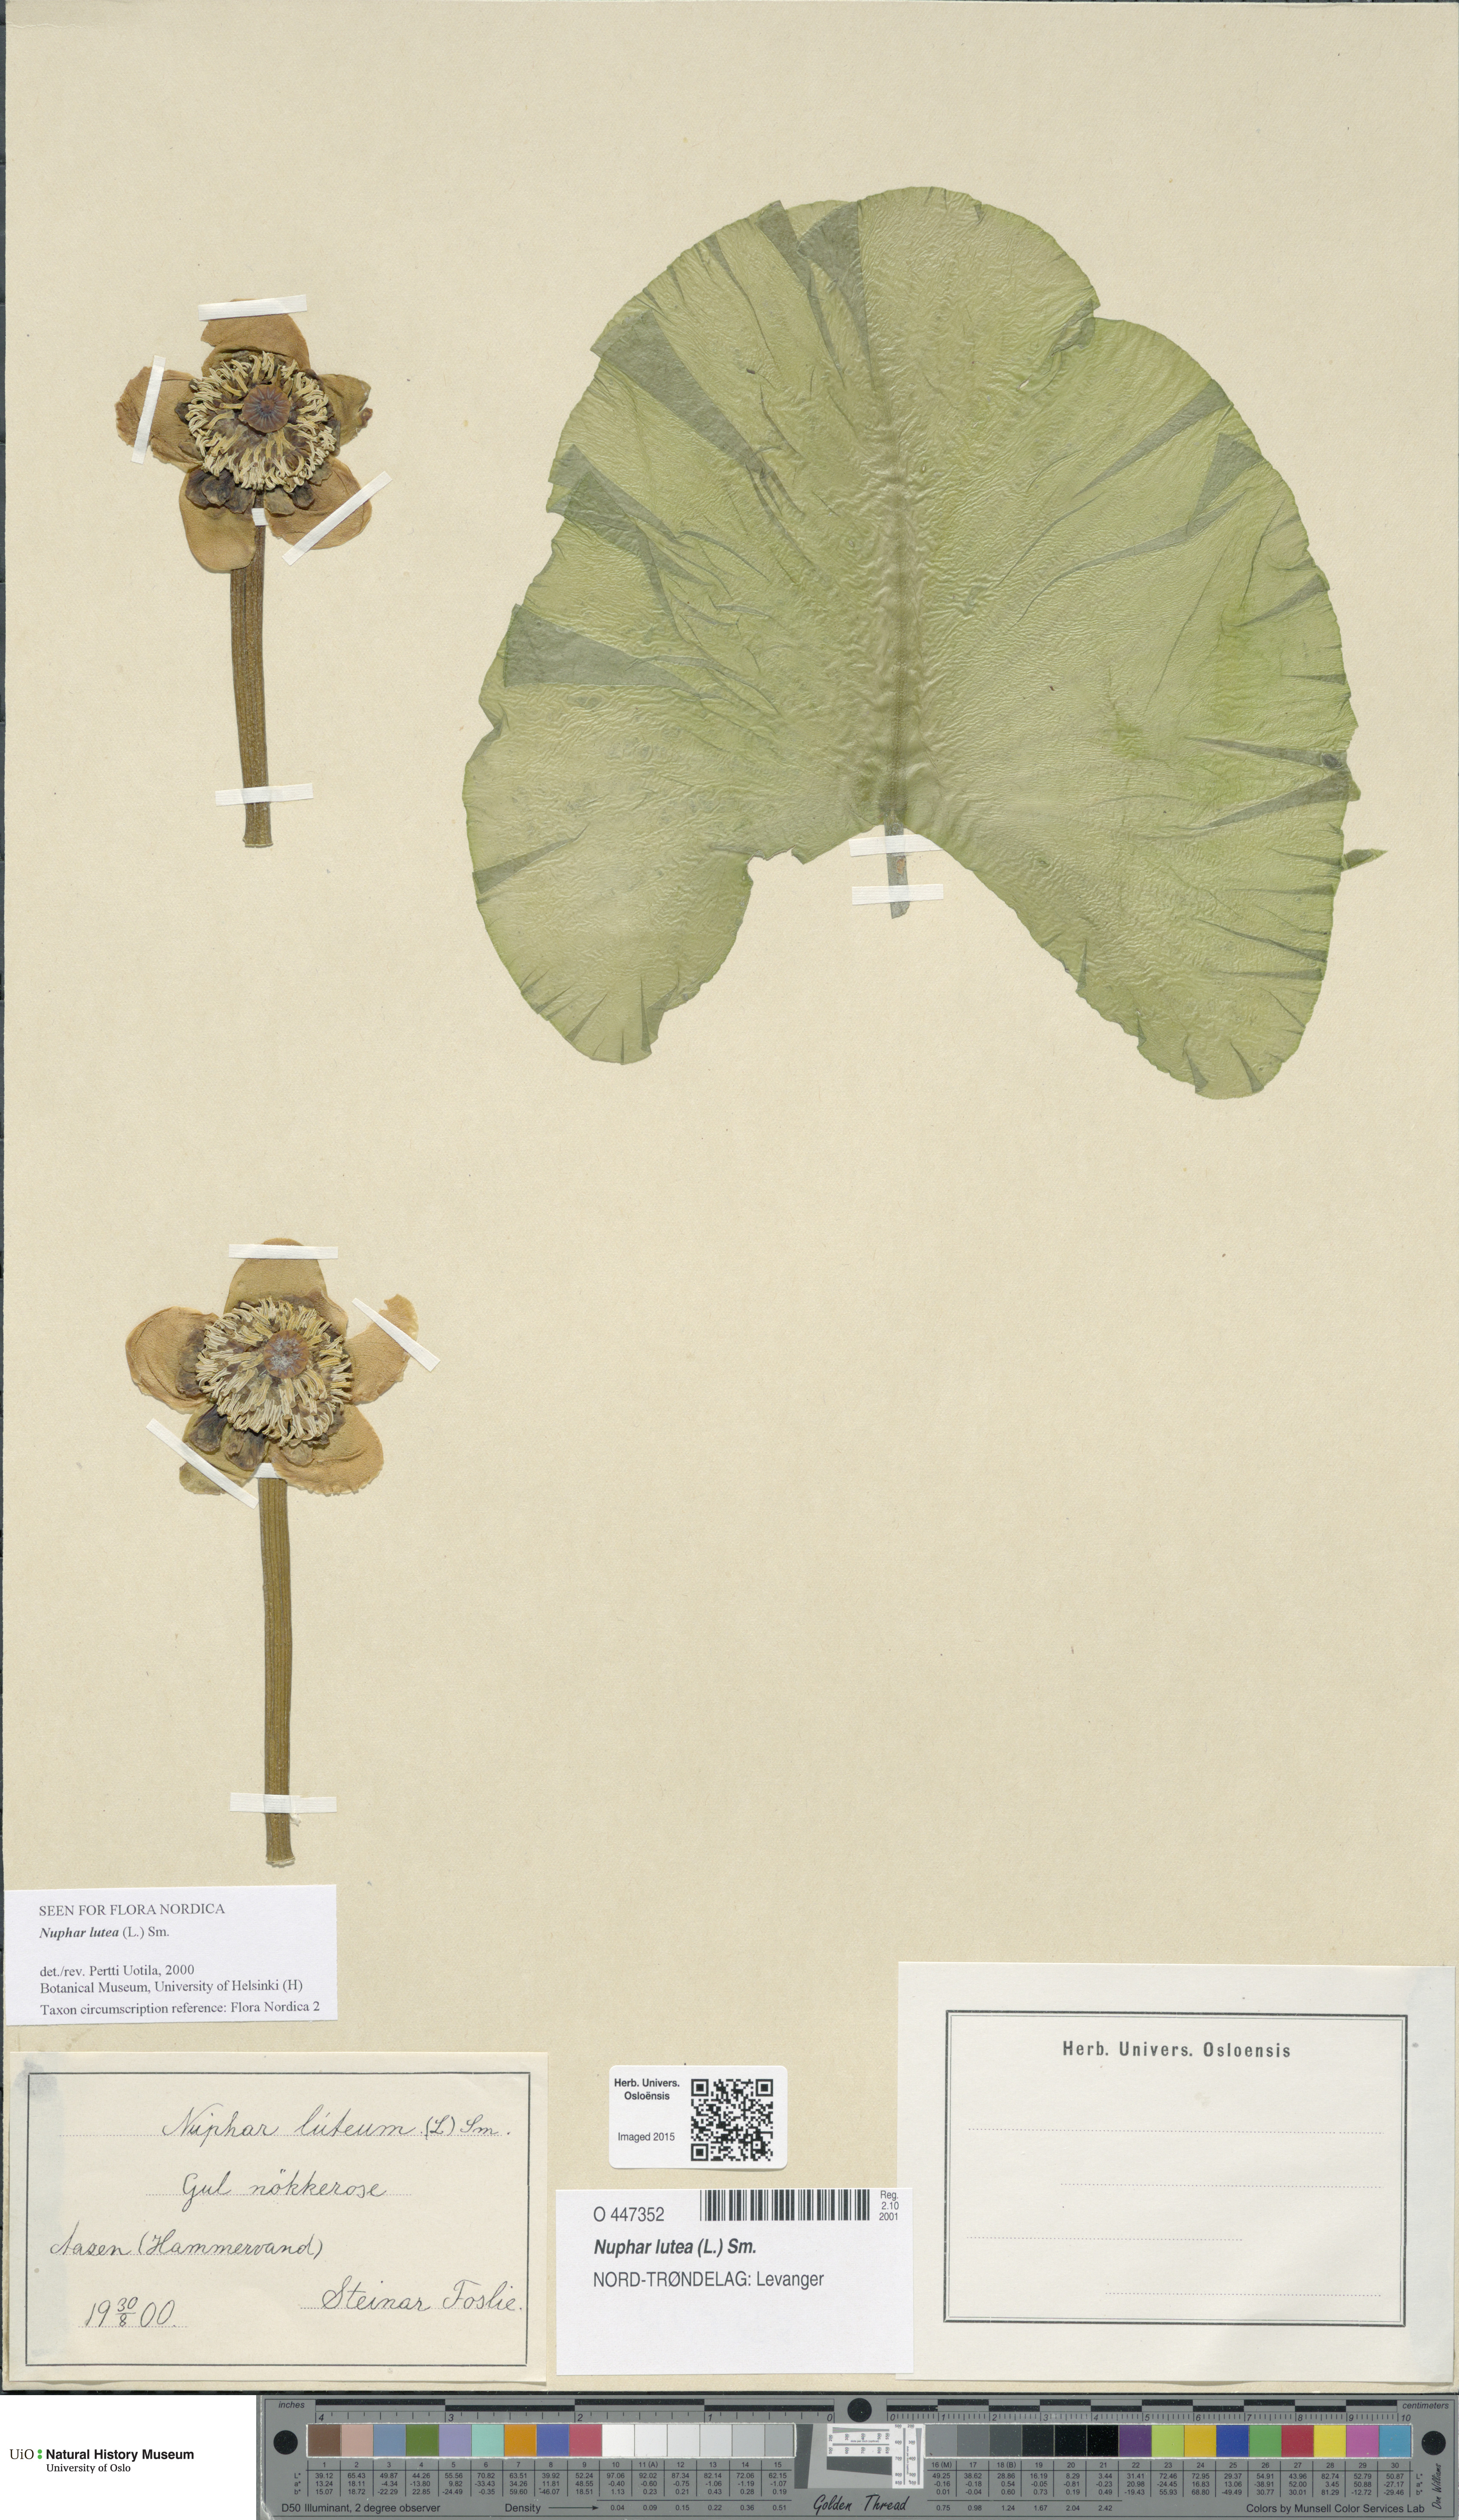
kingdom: Plantae
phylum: Tracheophyta
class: Magnoliopsida
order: Nymphaeales
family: Nymphaeaceae
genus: Nuphar
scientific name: Nuphar lutea
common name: Yellow water-lily
